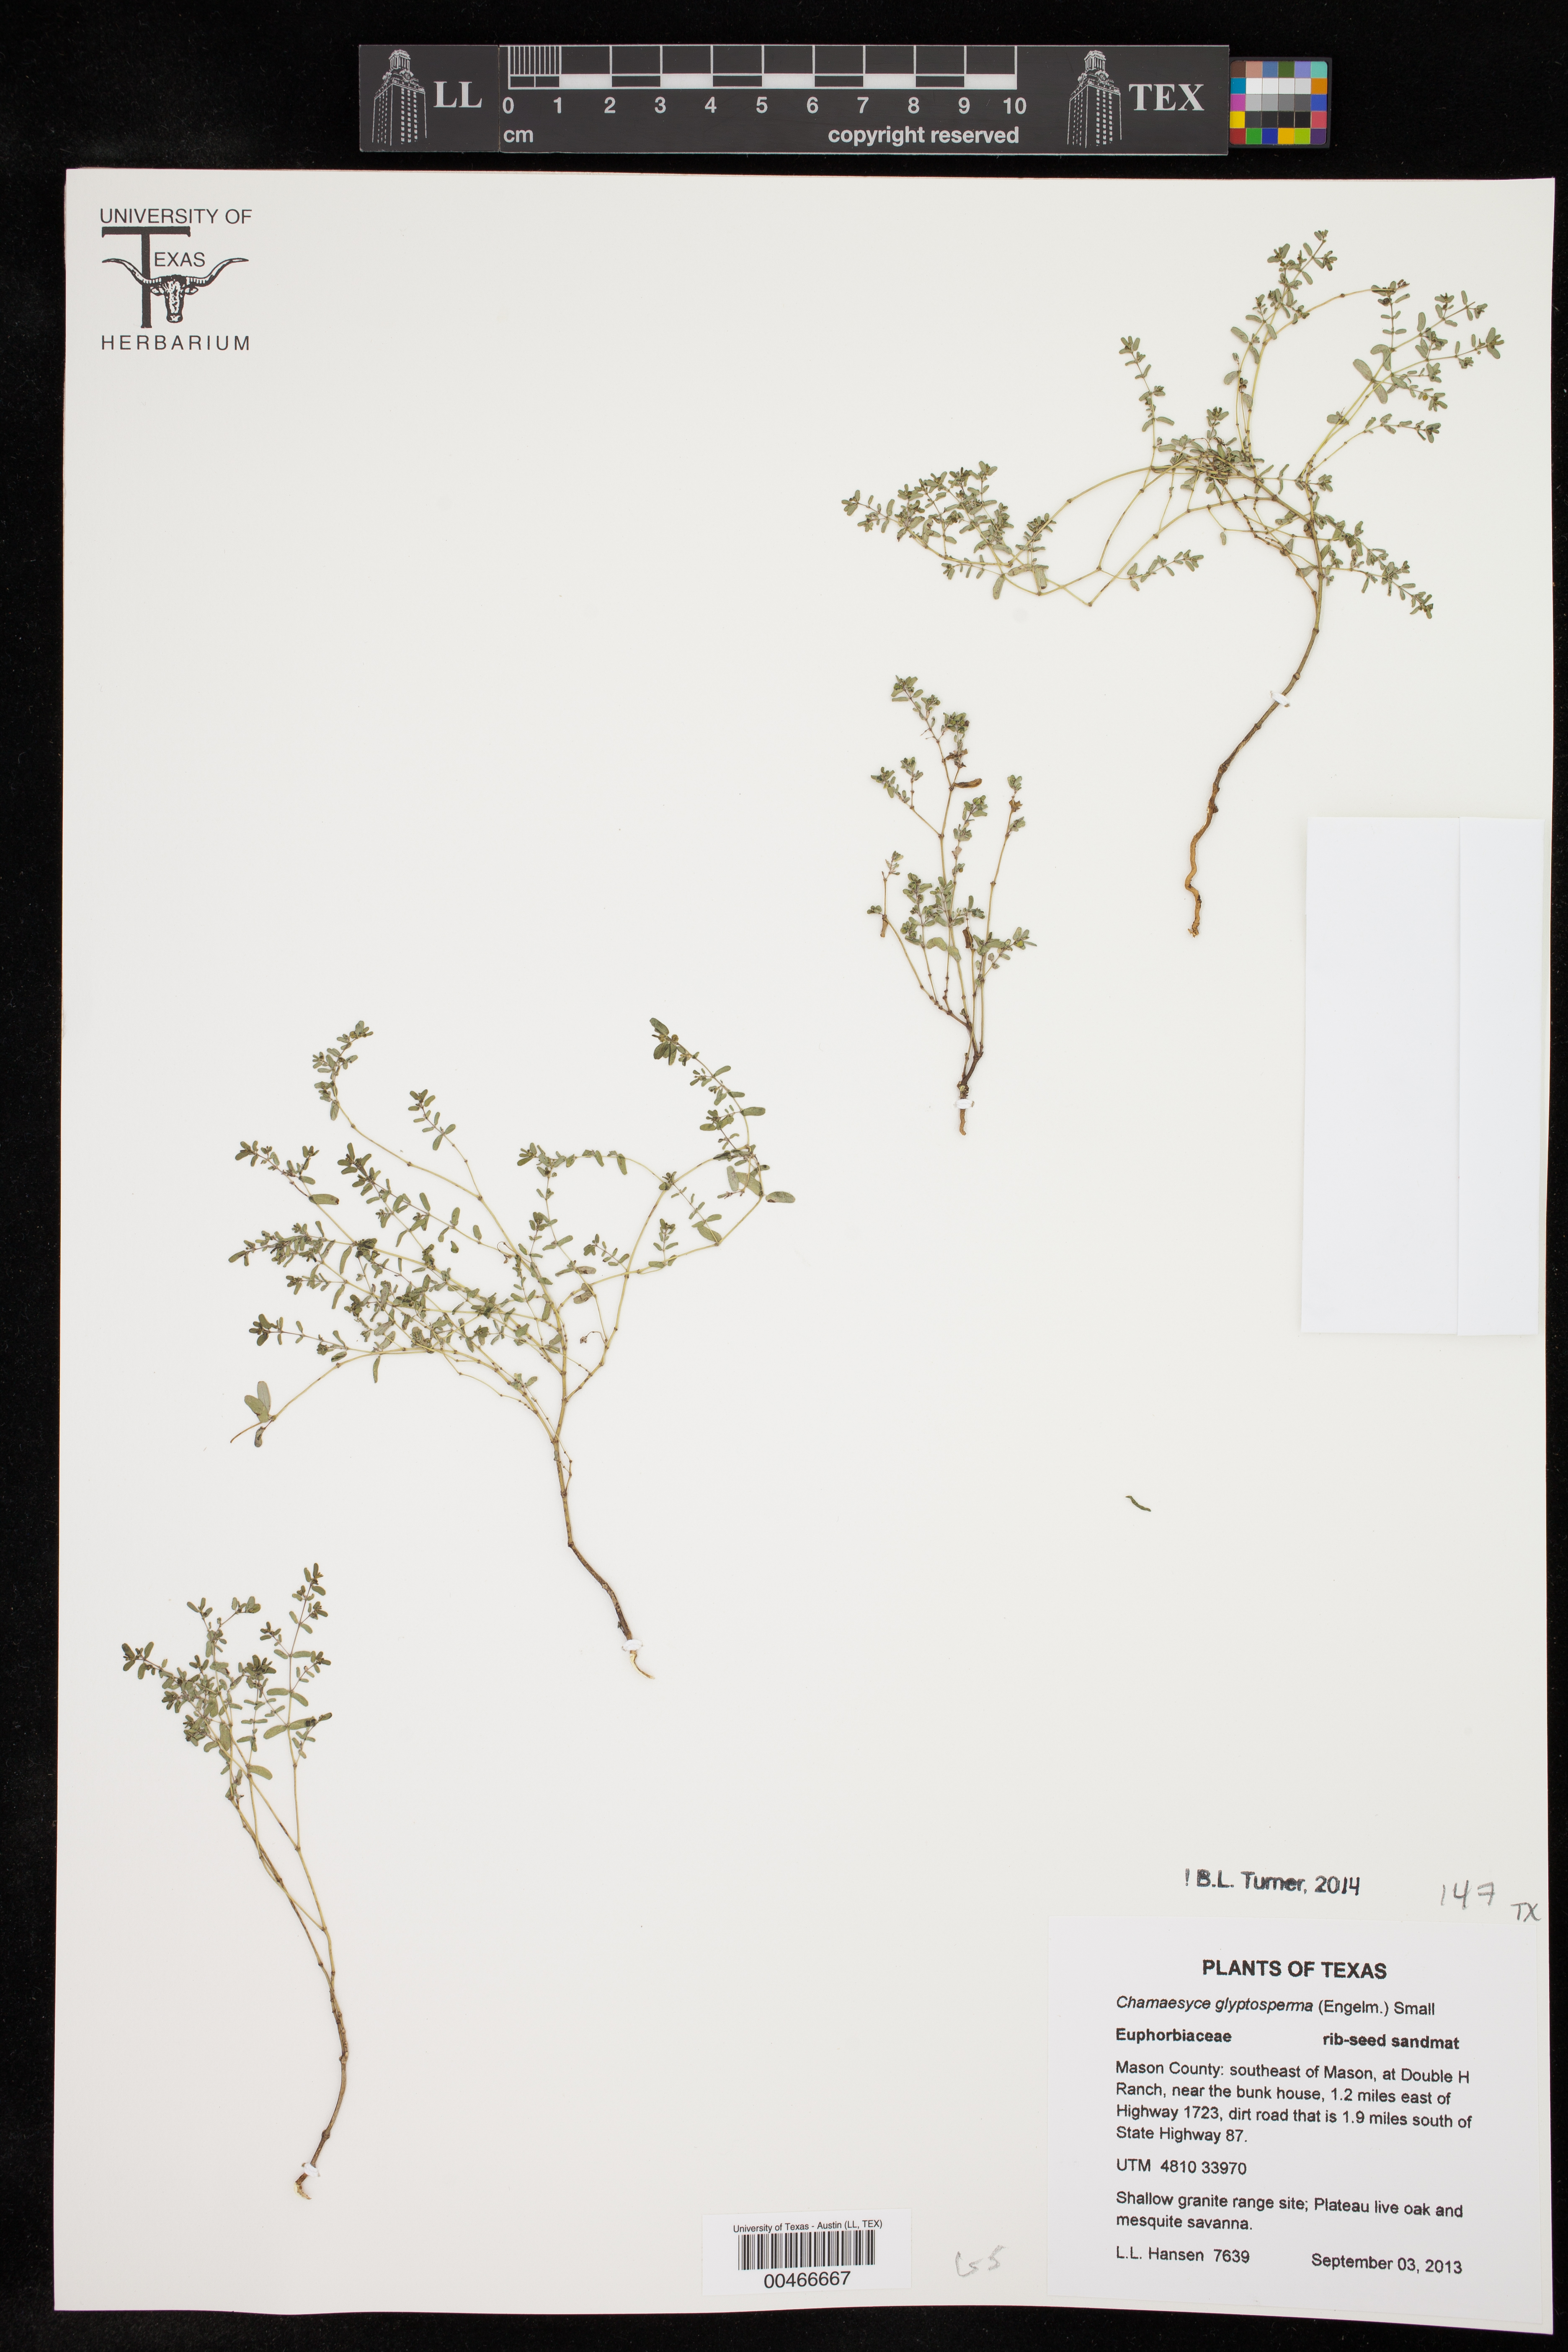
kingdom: Plantae
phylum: Tracheophyta
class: Magnoliopsida
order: Malpighiales
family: Euphorbiaceae
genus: Euphorbia
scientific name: Euphorbia glyptosperma
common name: Corrugate-seeded spurge
